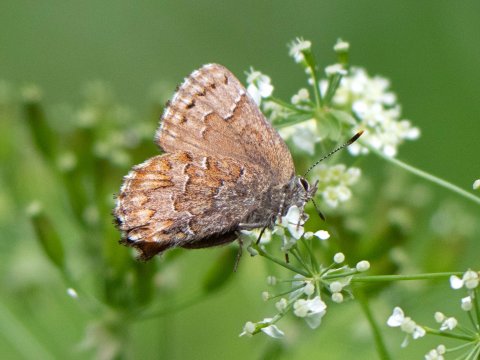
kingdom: Animalia
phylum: Arthropoda
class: Insecta
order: Lepidoptera
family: Lycaenidae
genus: Incisalia
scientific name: Incisalia niphon
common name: Eastern Pine Elfin
